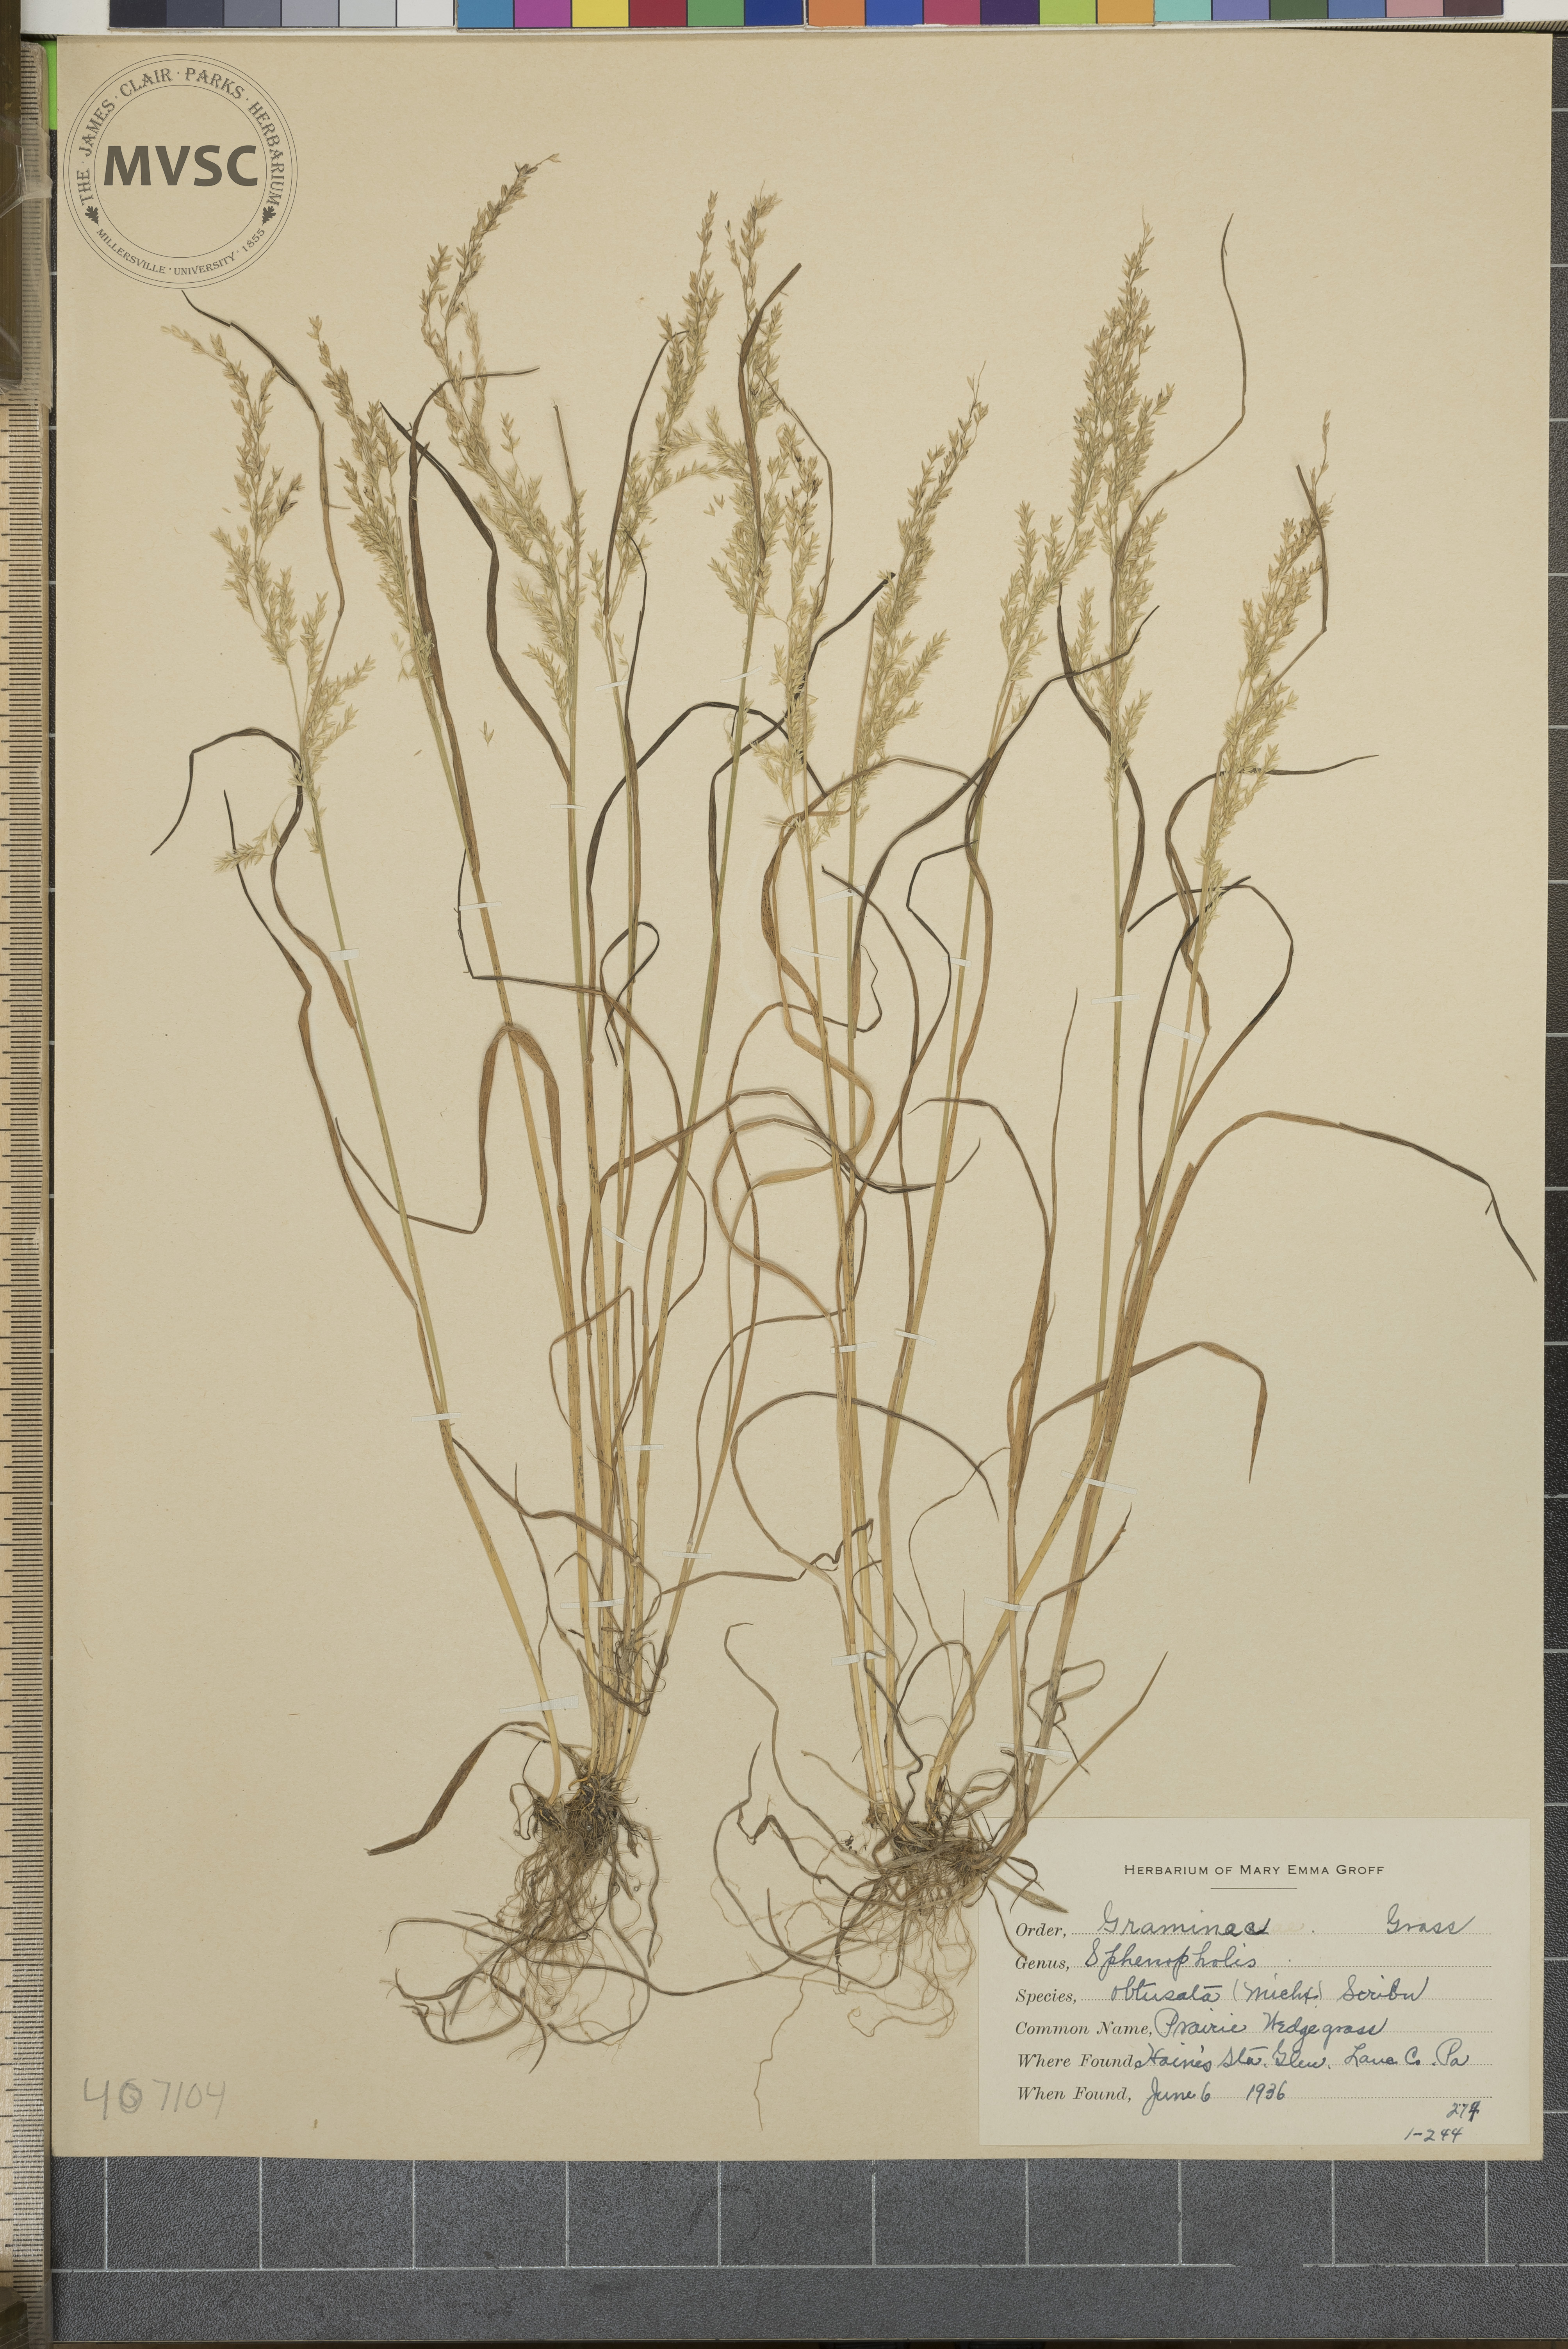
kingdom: Plantae
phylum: Tracheophyta
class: Liliopsida
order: Poales
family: Poaceae
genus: Sphenopholis
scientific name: Sphenopholis obtusata
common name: Prairie Wedge grass
